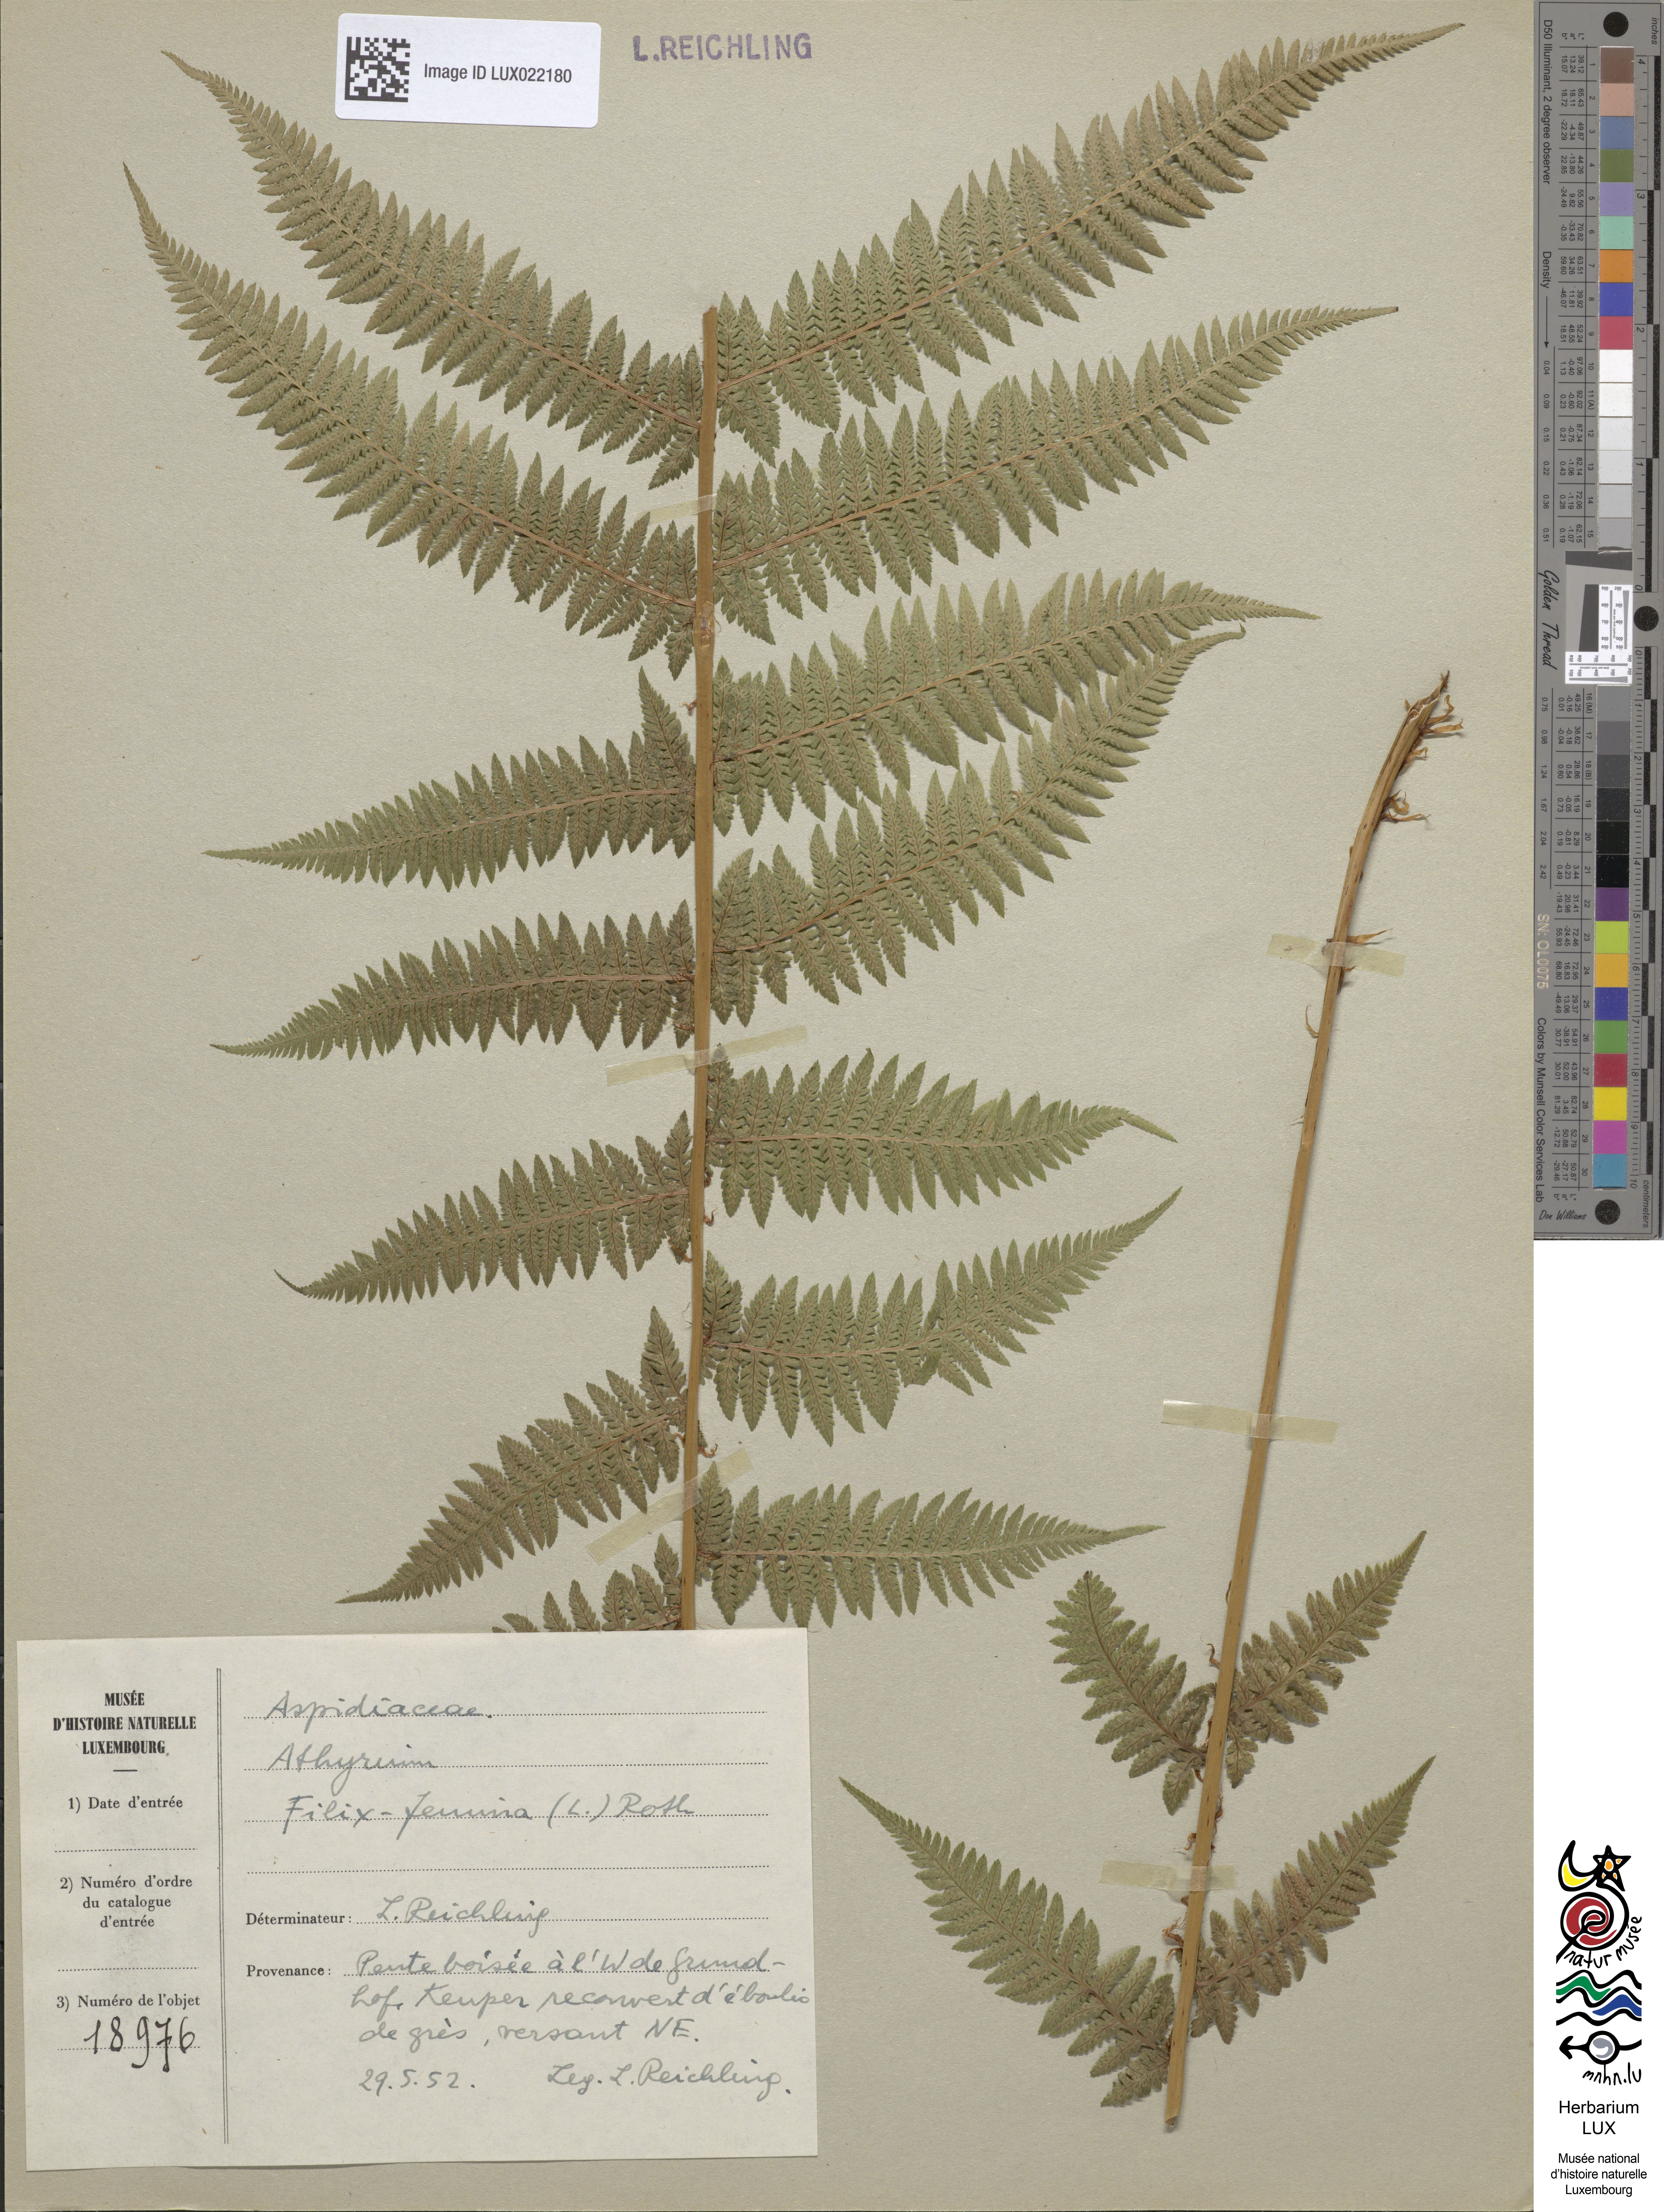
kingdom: Plantae
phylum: Tracheophyta
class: Polypodiopsida
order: Polypodiales
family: Athyriaceae
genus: Athyrium
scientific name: Athyrium filix-femina
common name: Lady fern
